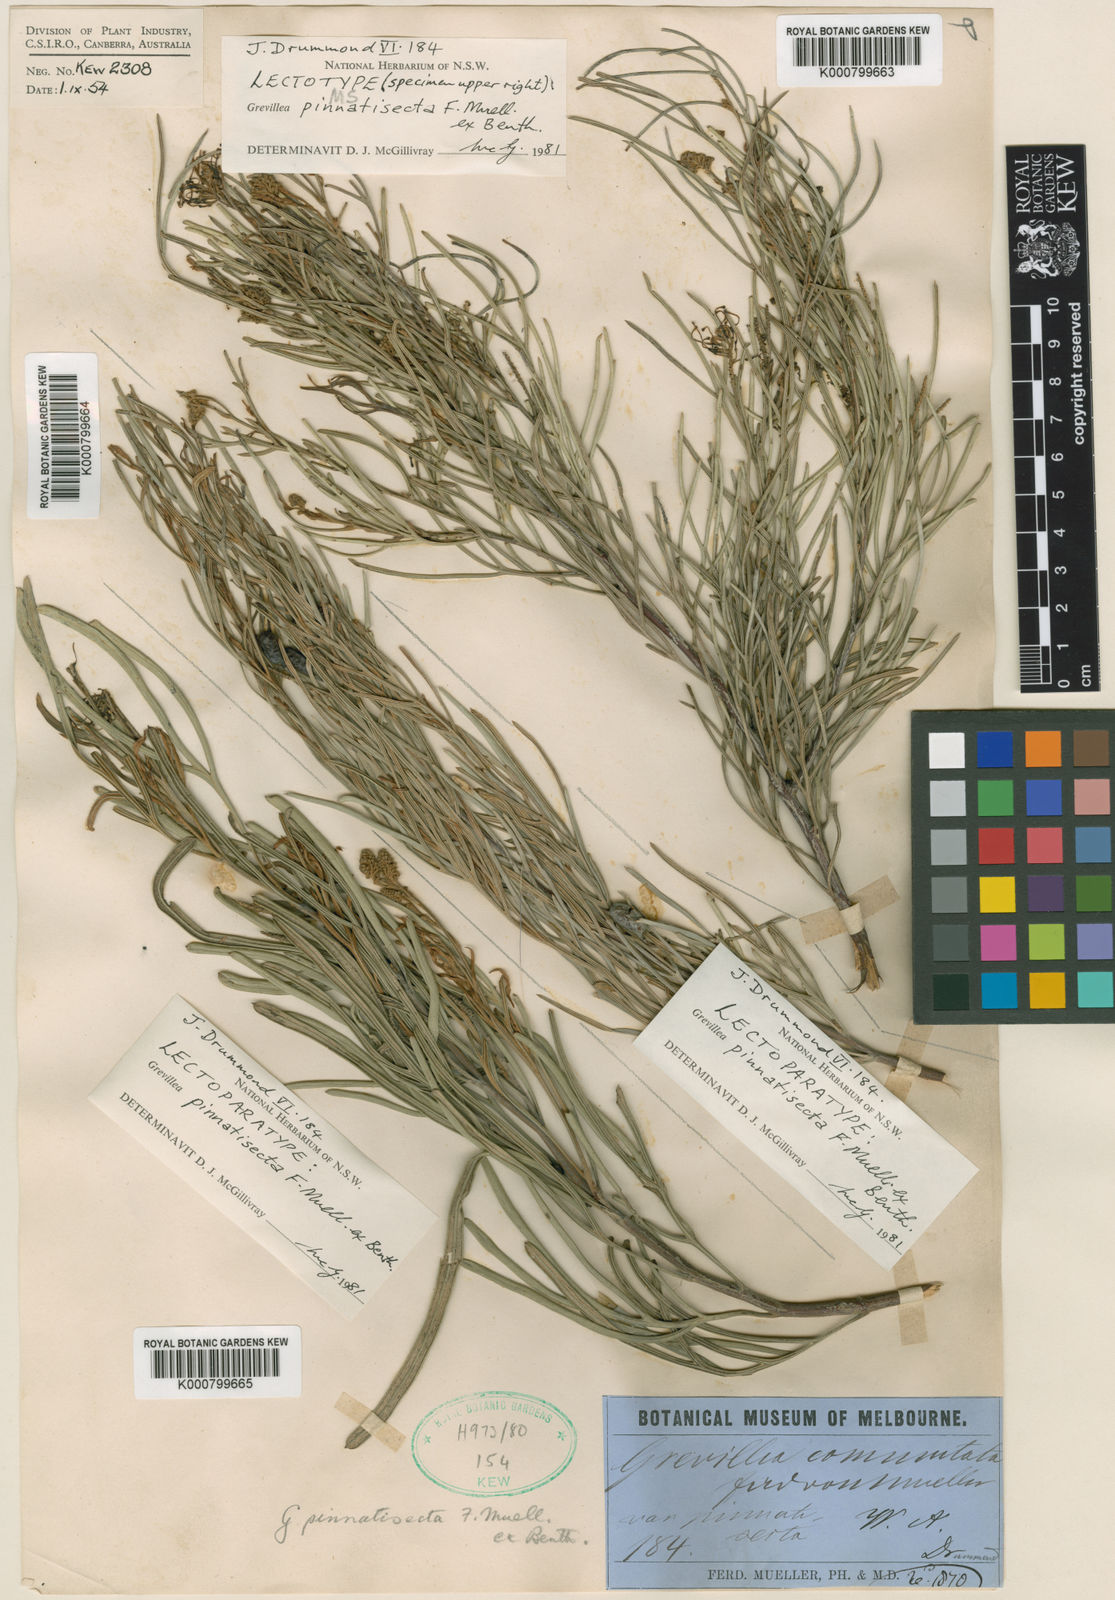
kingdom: Plantae
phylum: Tracheophyta
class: Magnoliopsida
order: Proteales
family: Proteaceae
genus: Grevillea
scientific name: Grevillea commutata
